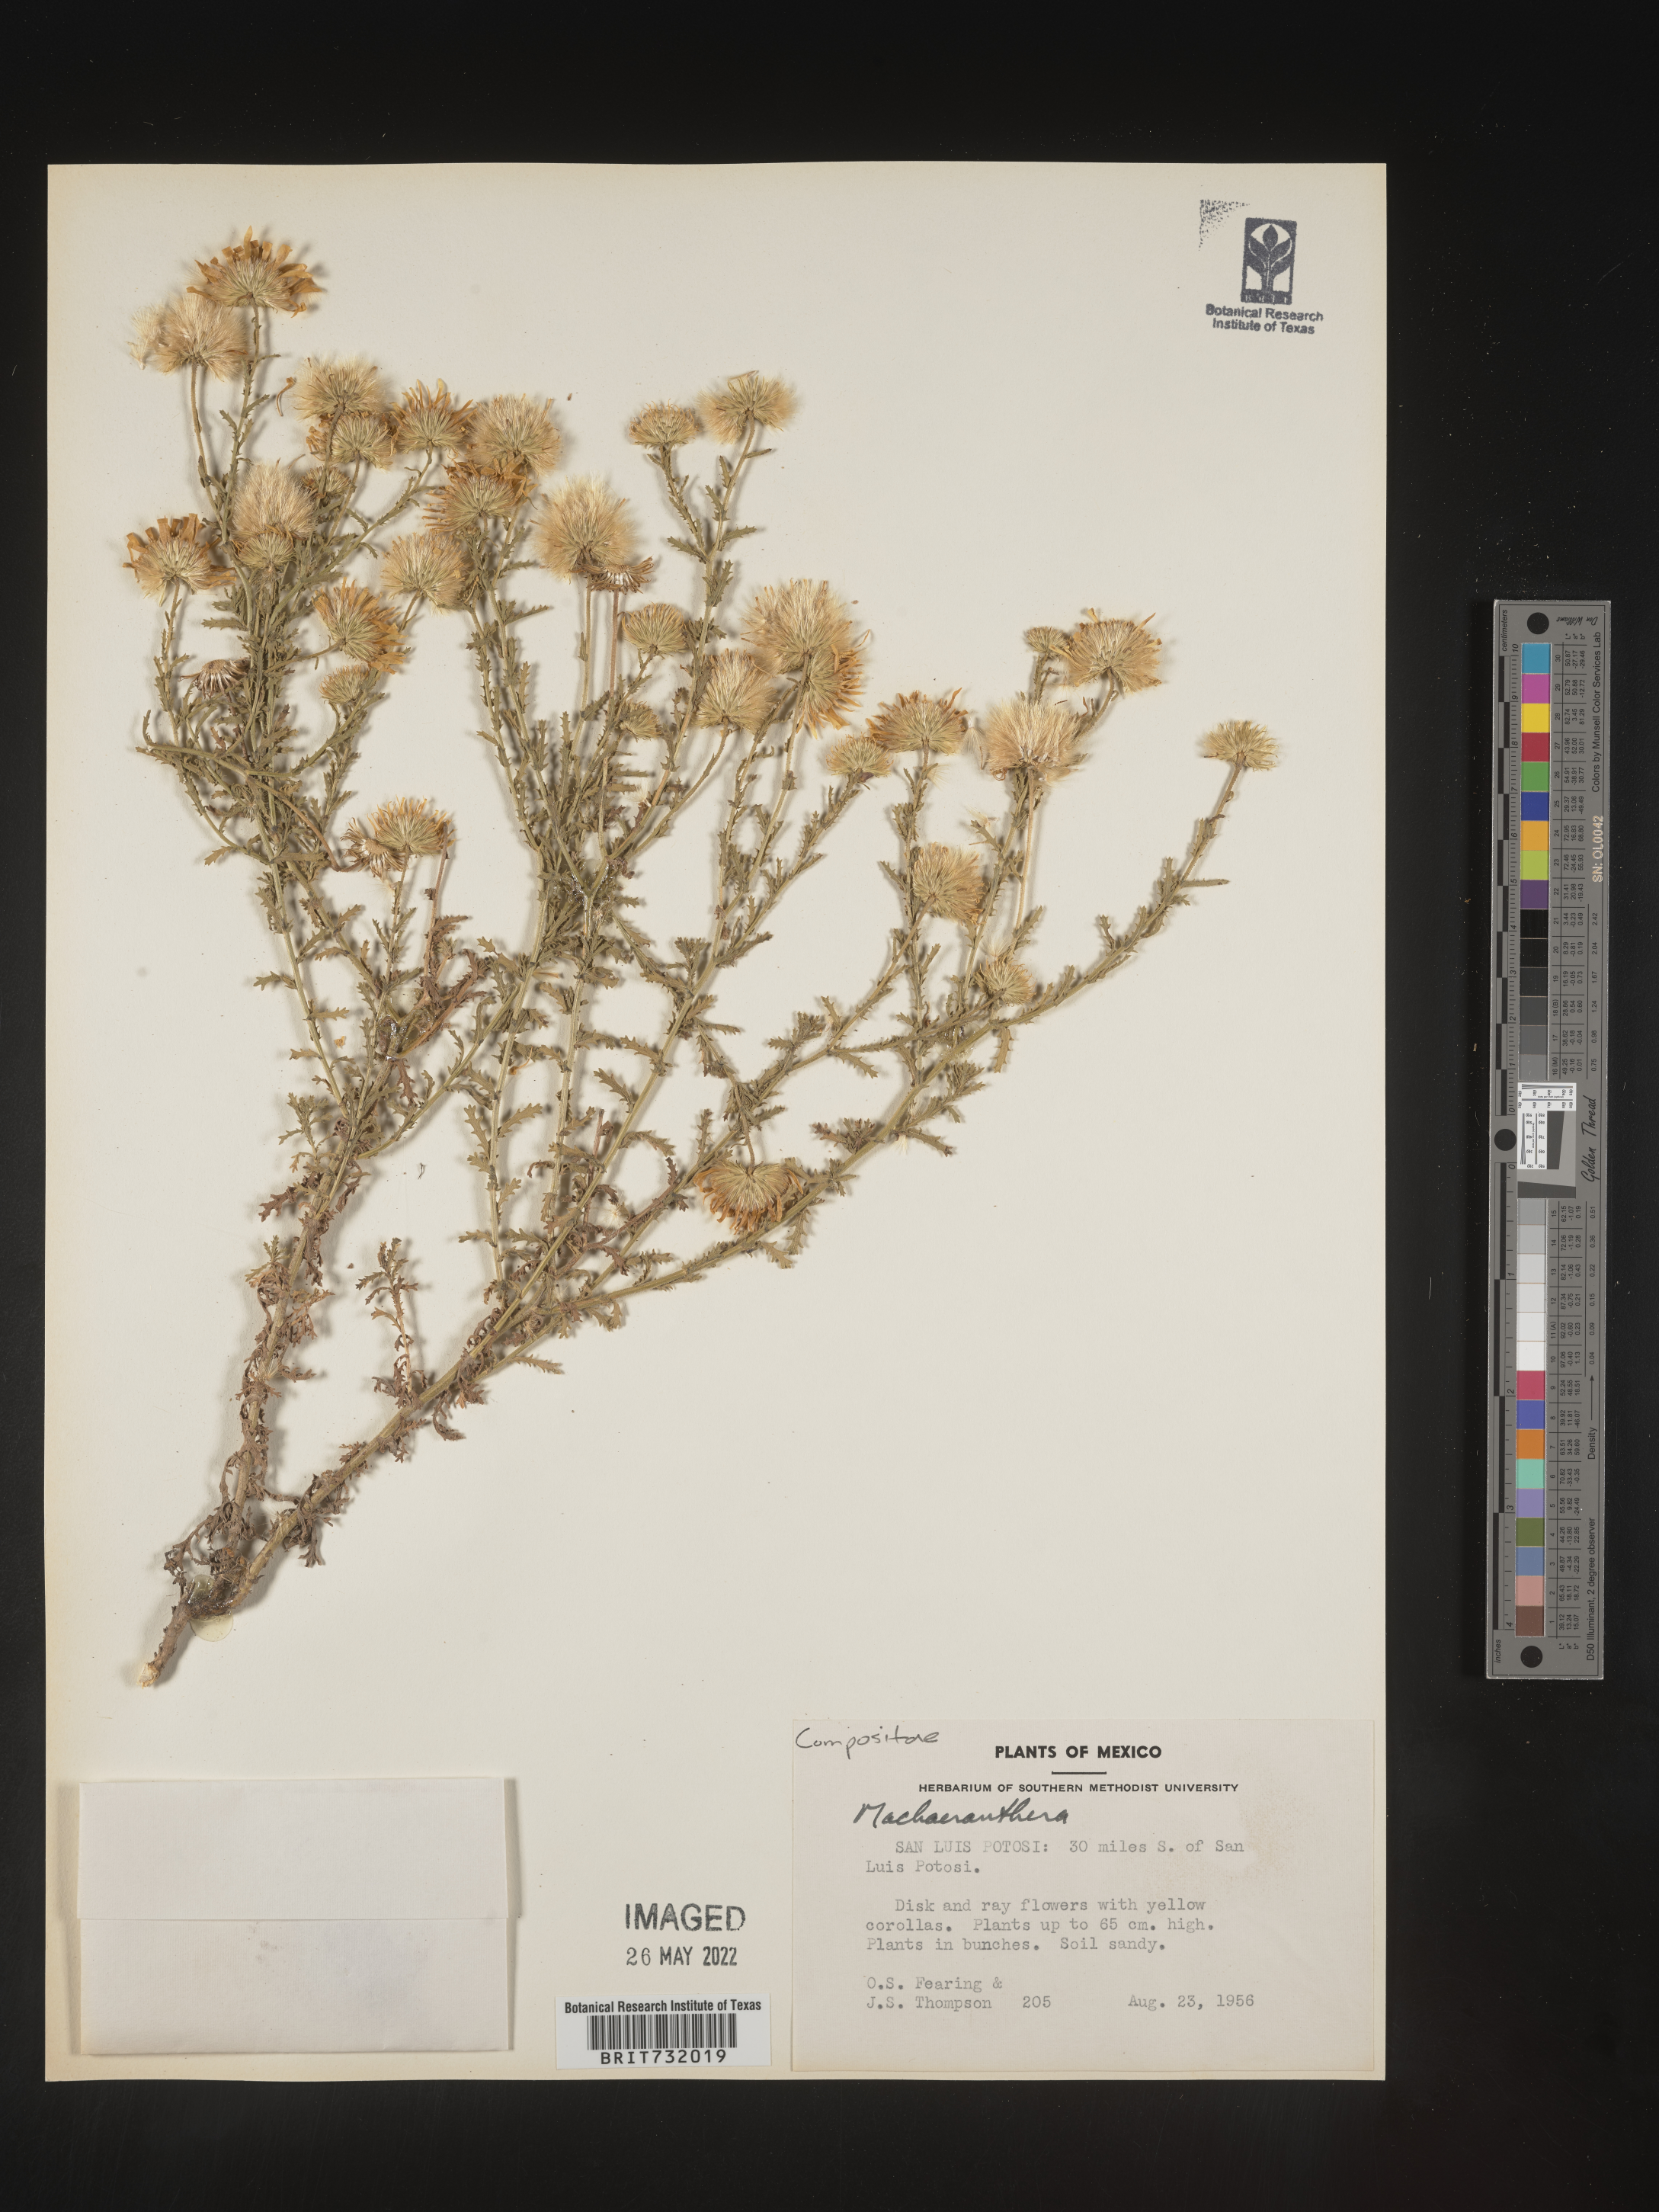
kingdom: Plantae
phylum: Tracheophyta
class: Magnoliopsida
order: Asterales
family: Asteraceae
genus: Machaeranthera
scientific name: Machaeranthera
